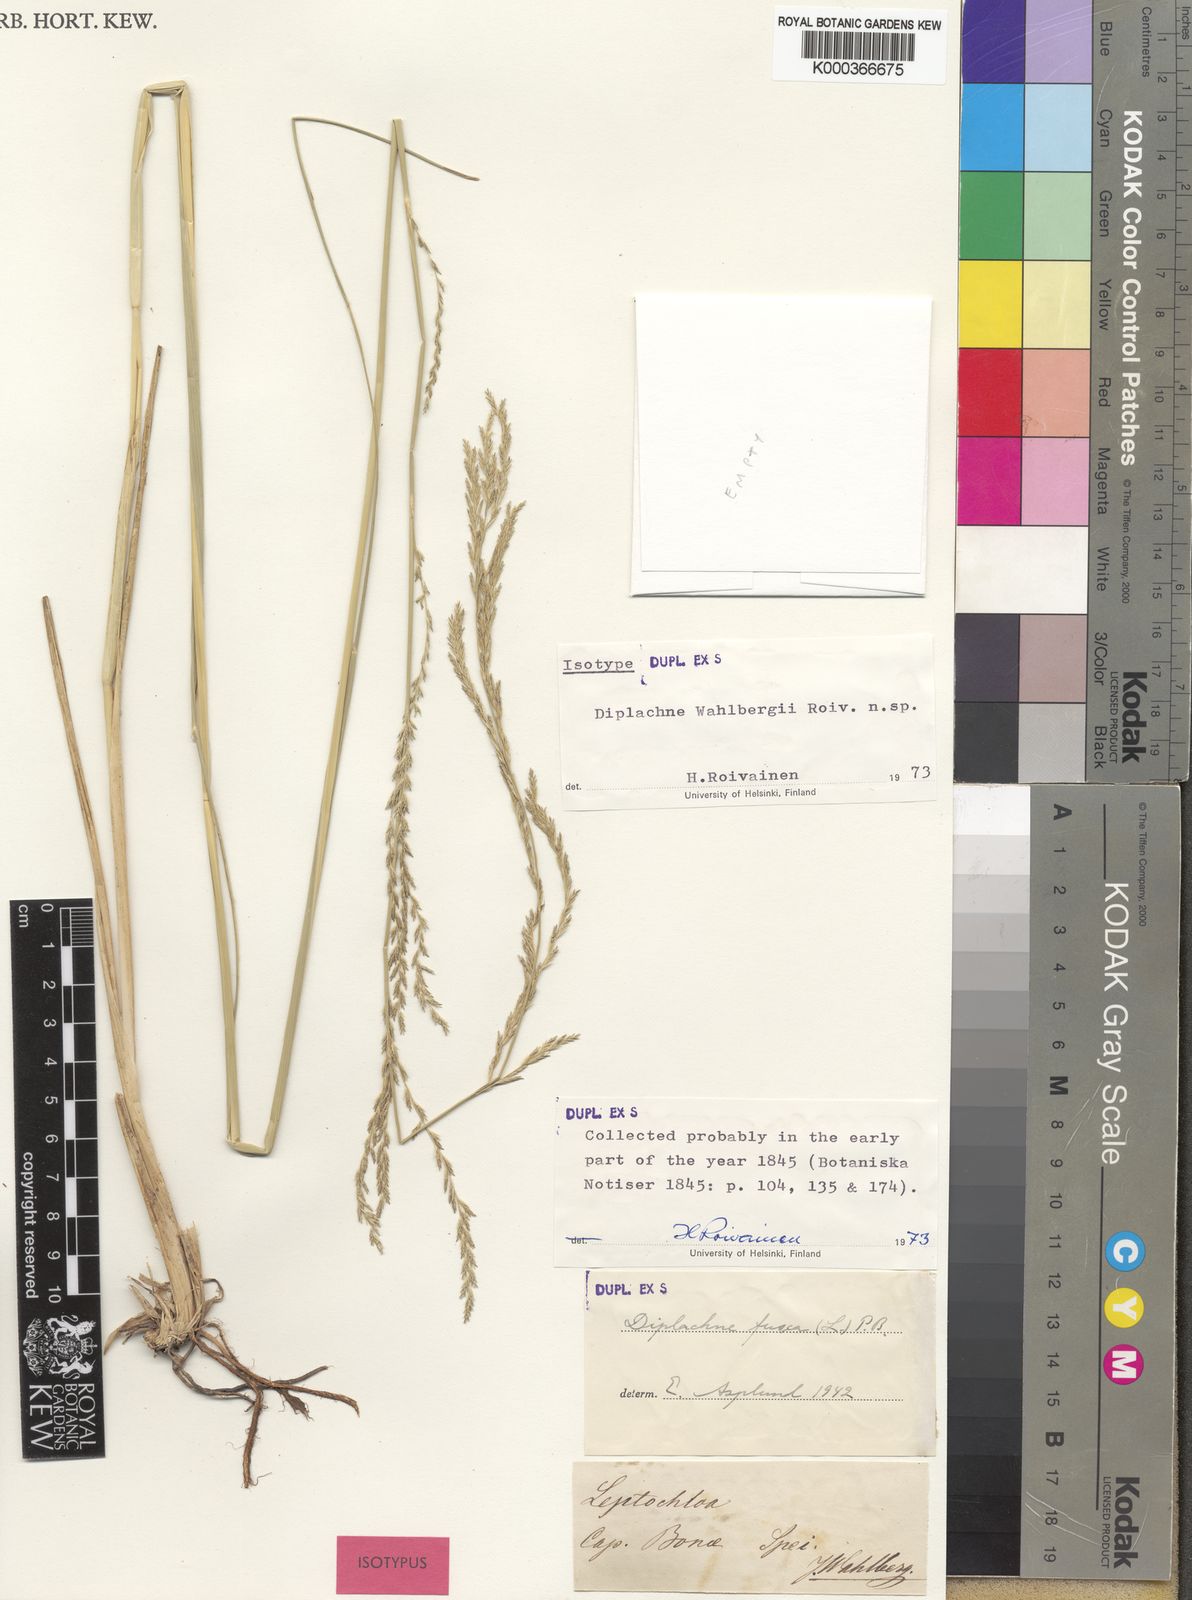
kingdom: Plantae
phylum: Tracheophyta
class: Liliopsida
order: Poales
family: Poaceae
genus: Diplachne
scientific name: Diplachne fusca
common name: Brown beetle grass
